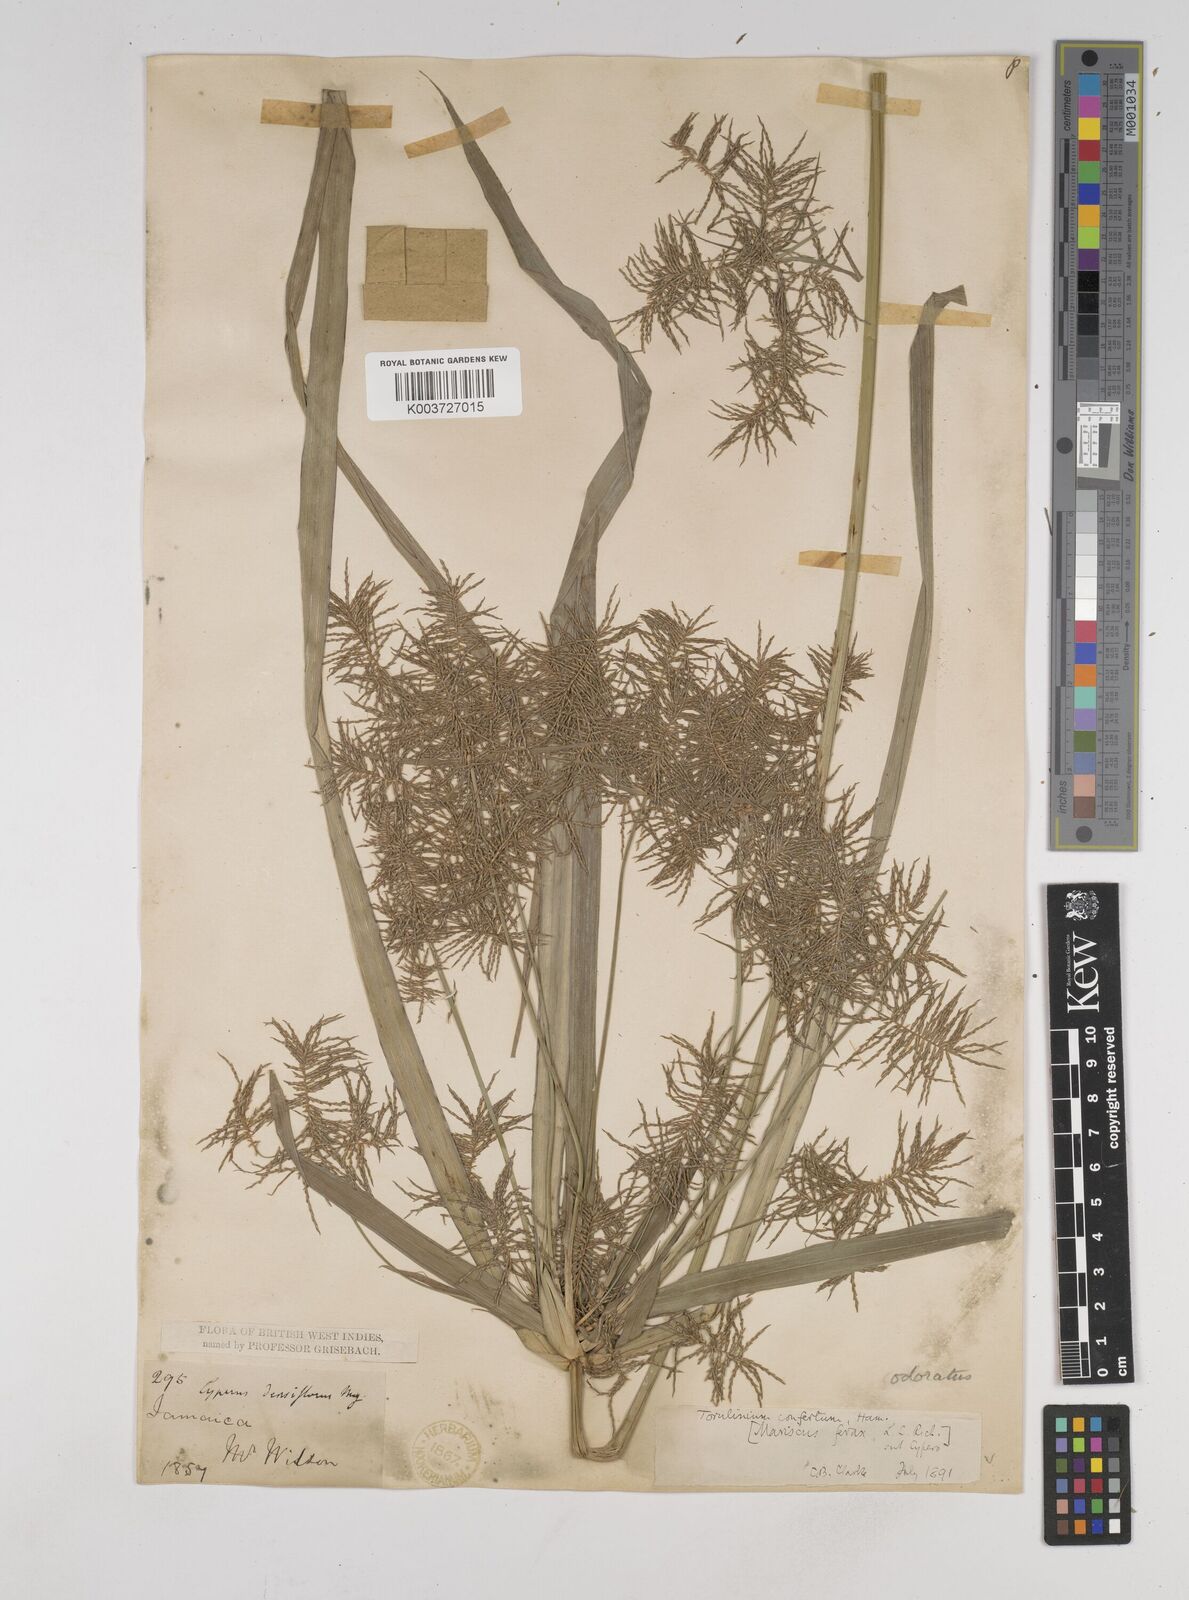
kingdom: Plantae
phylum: Tracheophyta
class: Liliopsida
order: Poales
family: Cyperaceae
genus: Cyperus
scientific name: Cyperus odoratus
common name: Fragrant flatsedge
